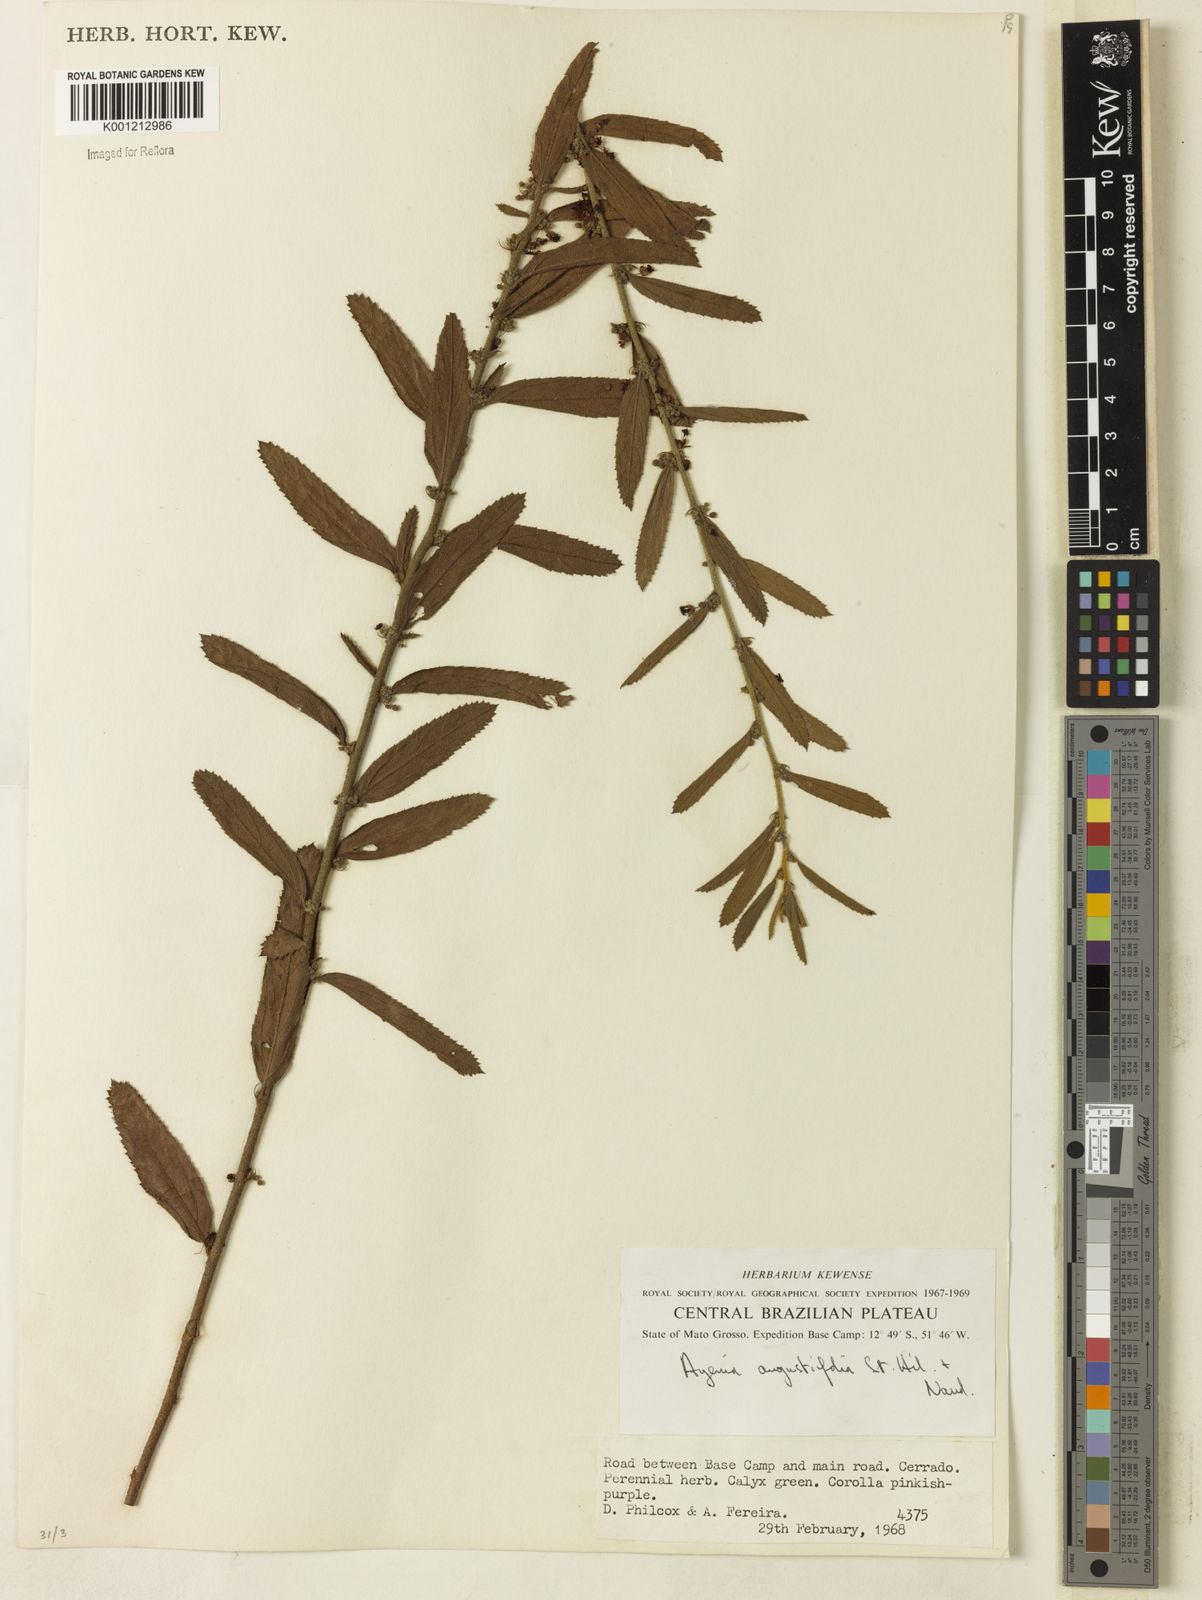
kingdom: Plantae
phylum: Tracheophyta
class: Magnoliopsida
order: Malvales
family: Malvaceae
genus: Ayenia
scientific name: Ayenia angustifolia
